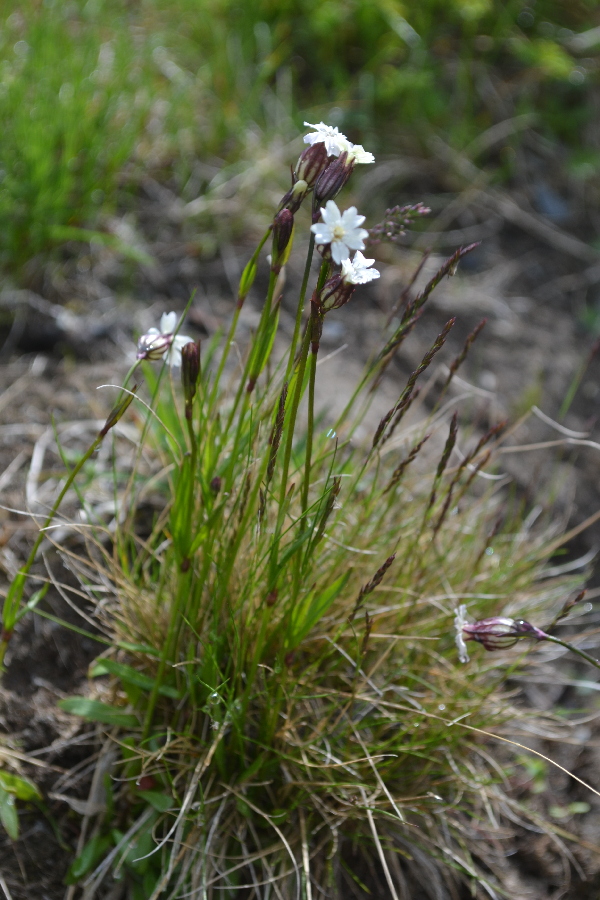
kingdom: Plantae
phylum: Tracheophyta
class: Magnoliopsida
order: Caryophyllales
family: Caryophyllaceae
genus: Silene
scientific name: Silene involucrata
